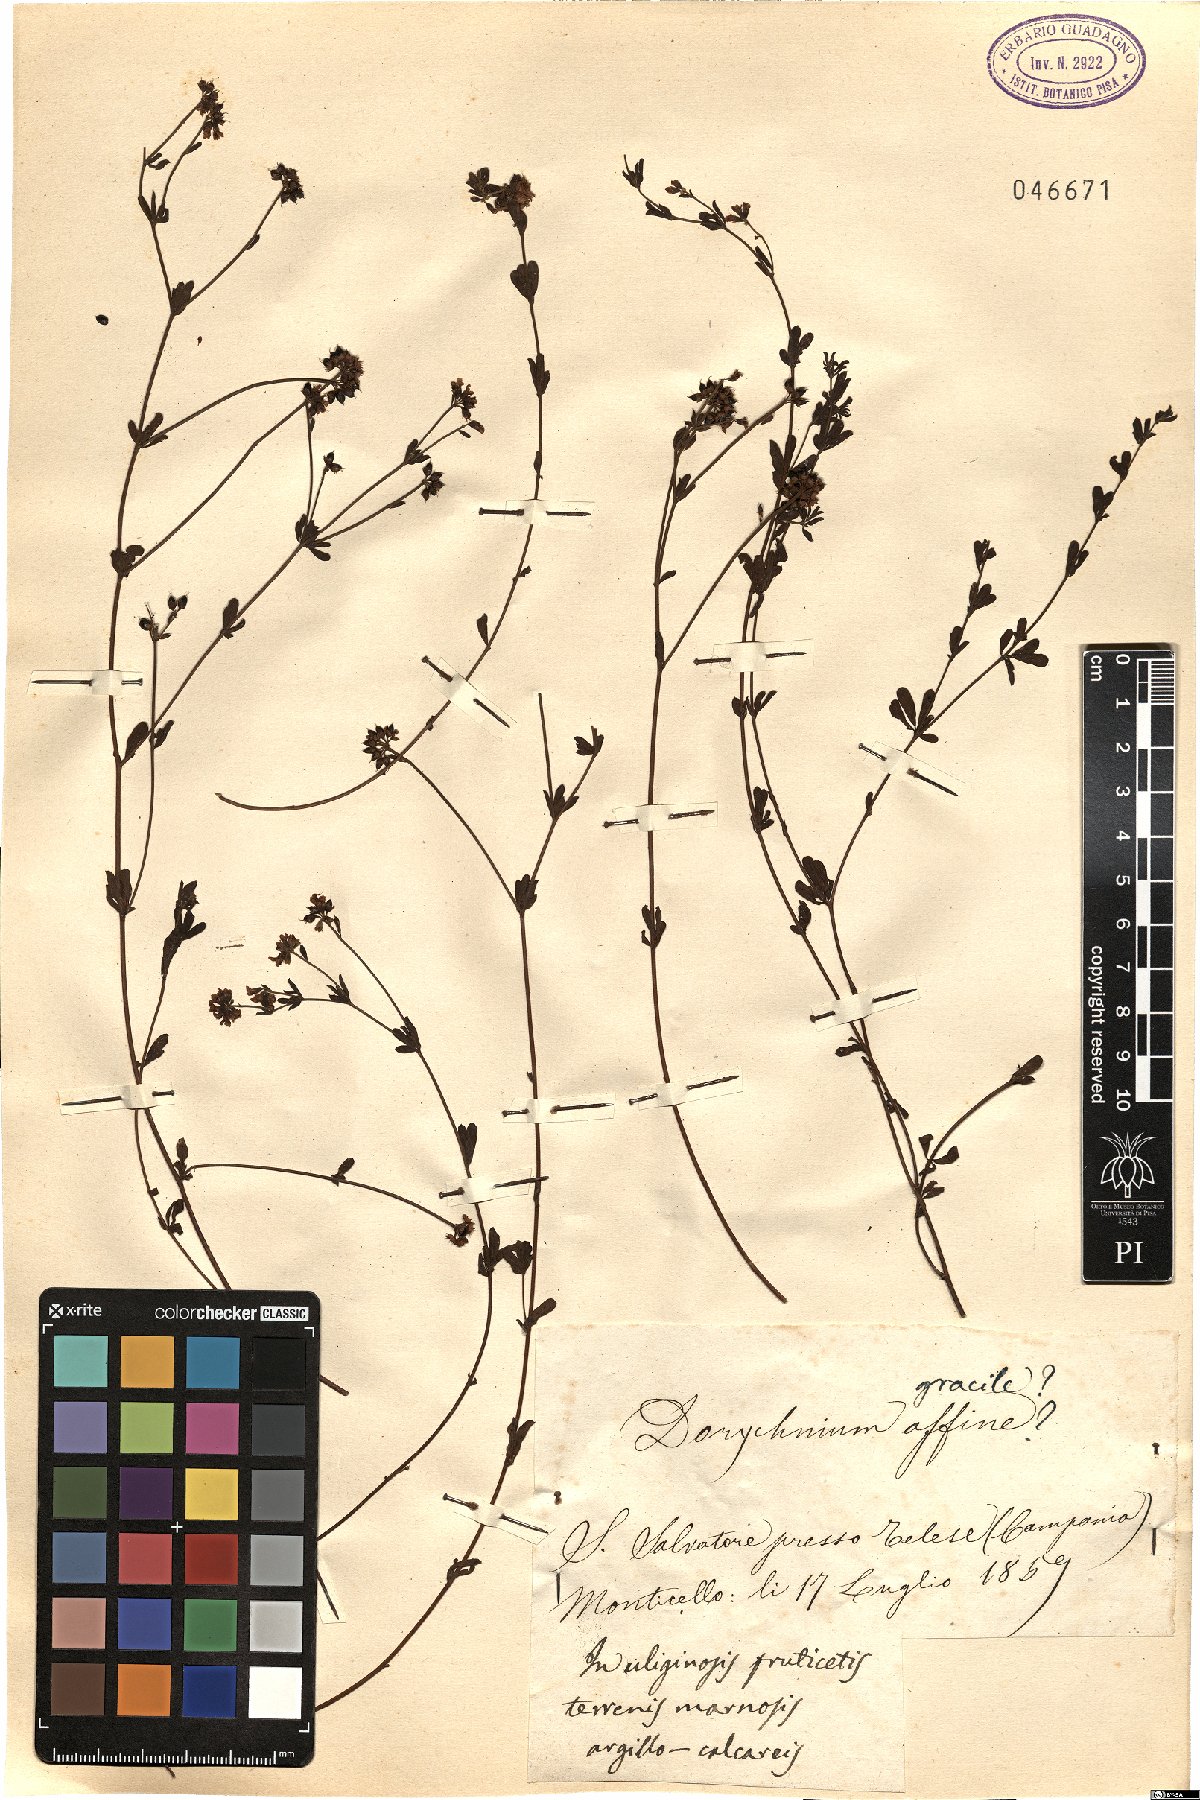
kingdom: Plantae
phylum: Tracheophyta
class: Magnoliopsida
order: Fabales
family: Fabaceae
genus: Lotus
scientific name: Lotus jordanii
